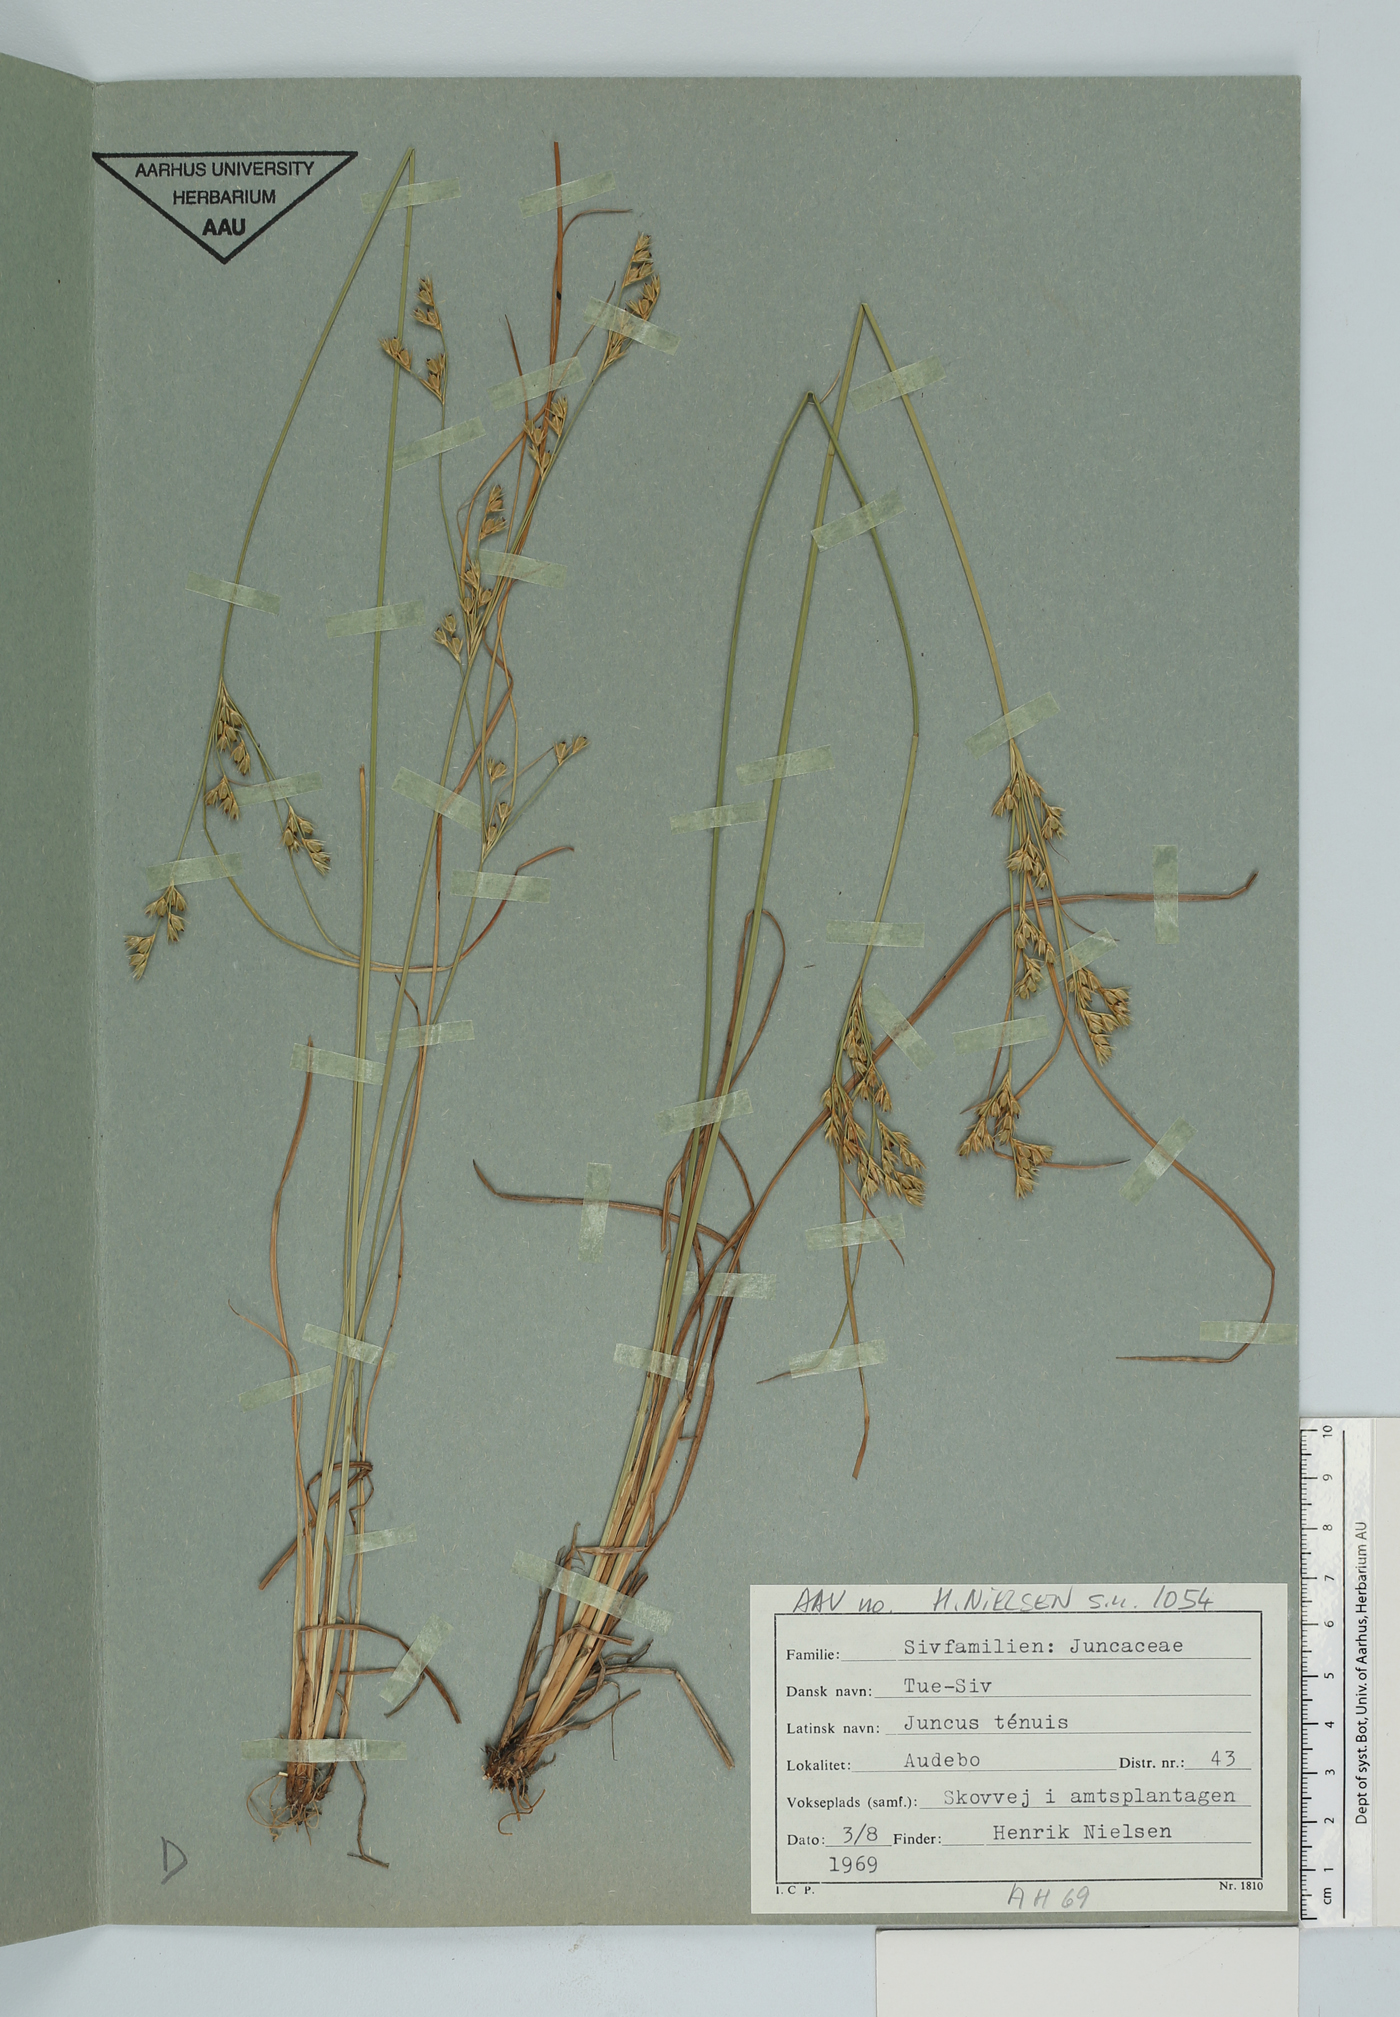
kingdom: Plantae
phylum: Tracheophyta
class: Liliopsida
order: Poales
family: Juncaceae
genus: Juncus
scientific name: Juncus tenuis
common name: Slender rush
